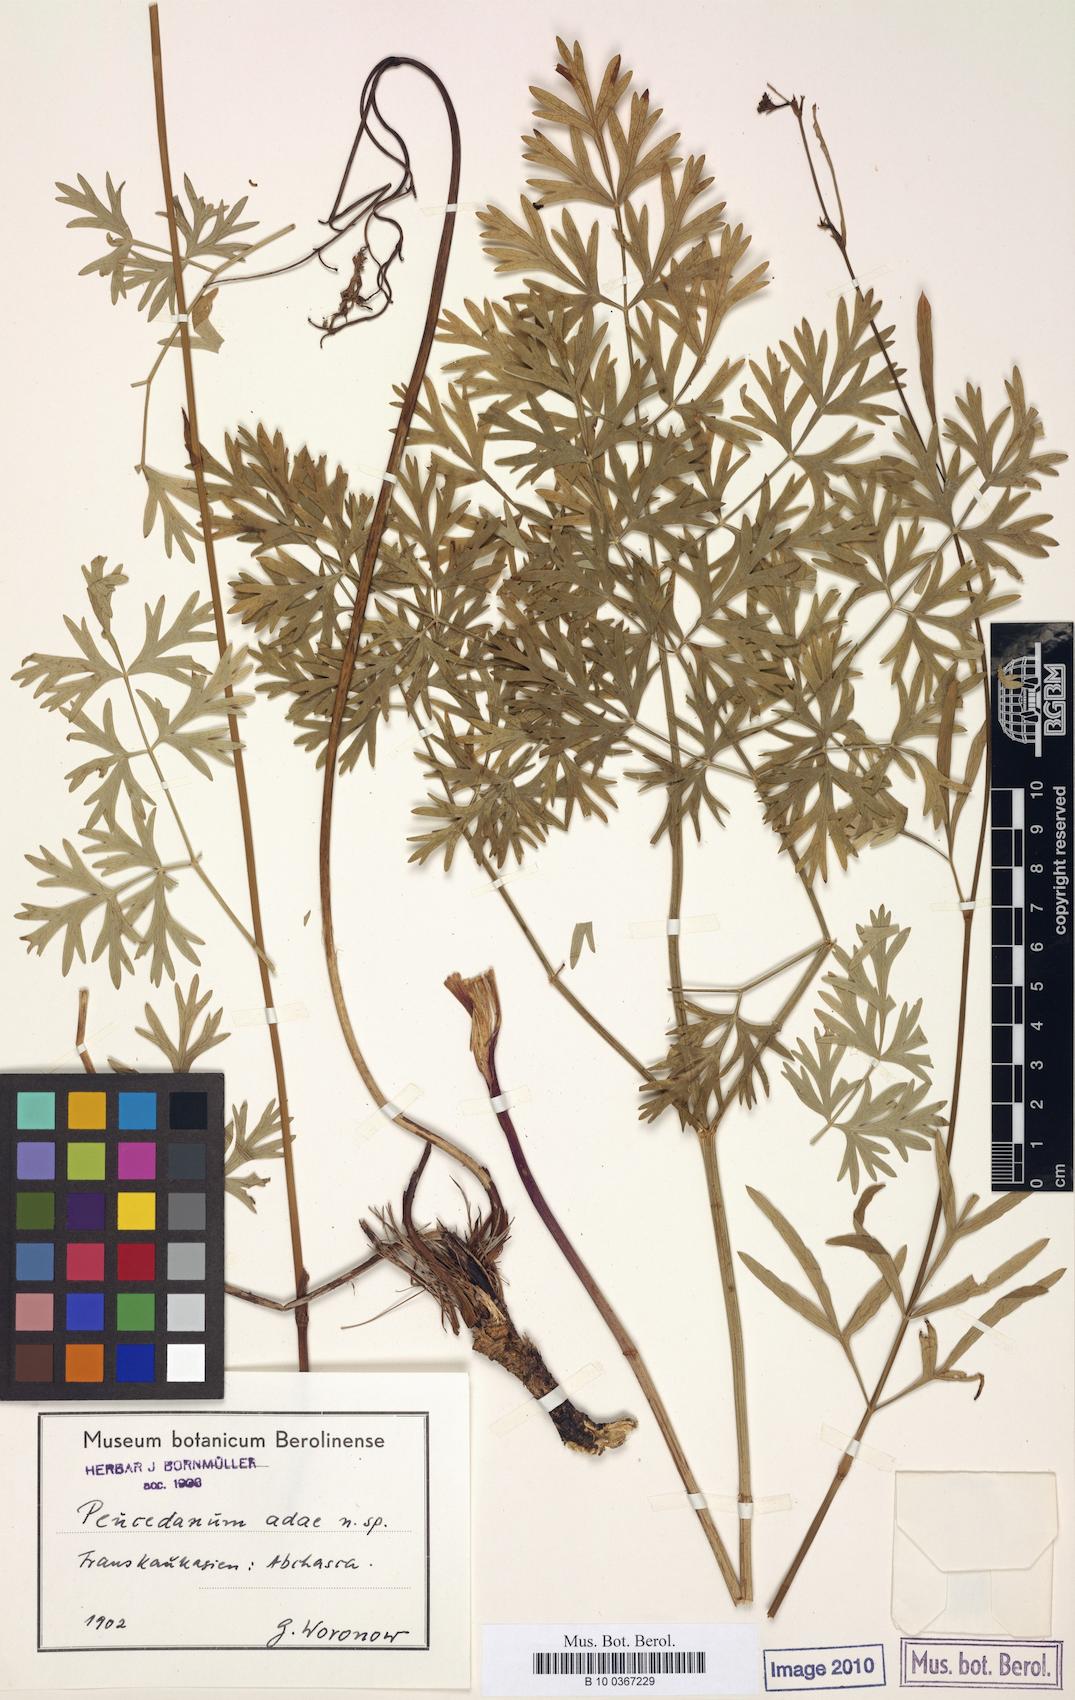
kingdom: Plantae
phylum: Tracheophyta
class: Magnoliopsida
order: Apiales
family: Apiaceae
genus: Peucedanum
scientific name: Peucedanum adae
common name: Ada's hog's-fennel
